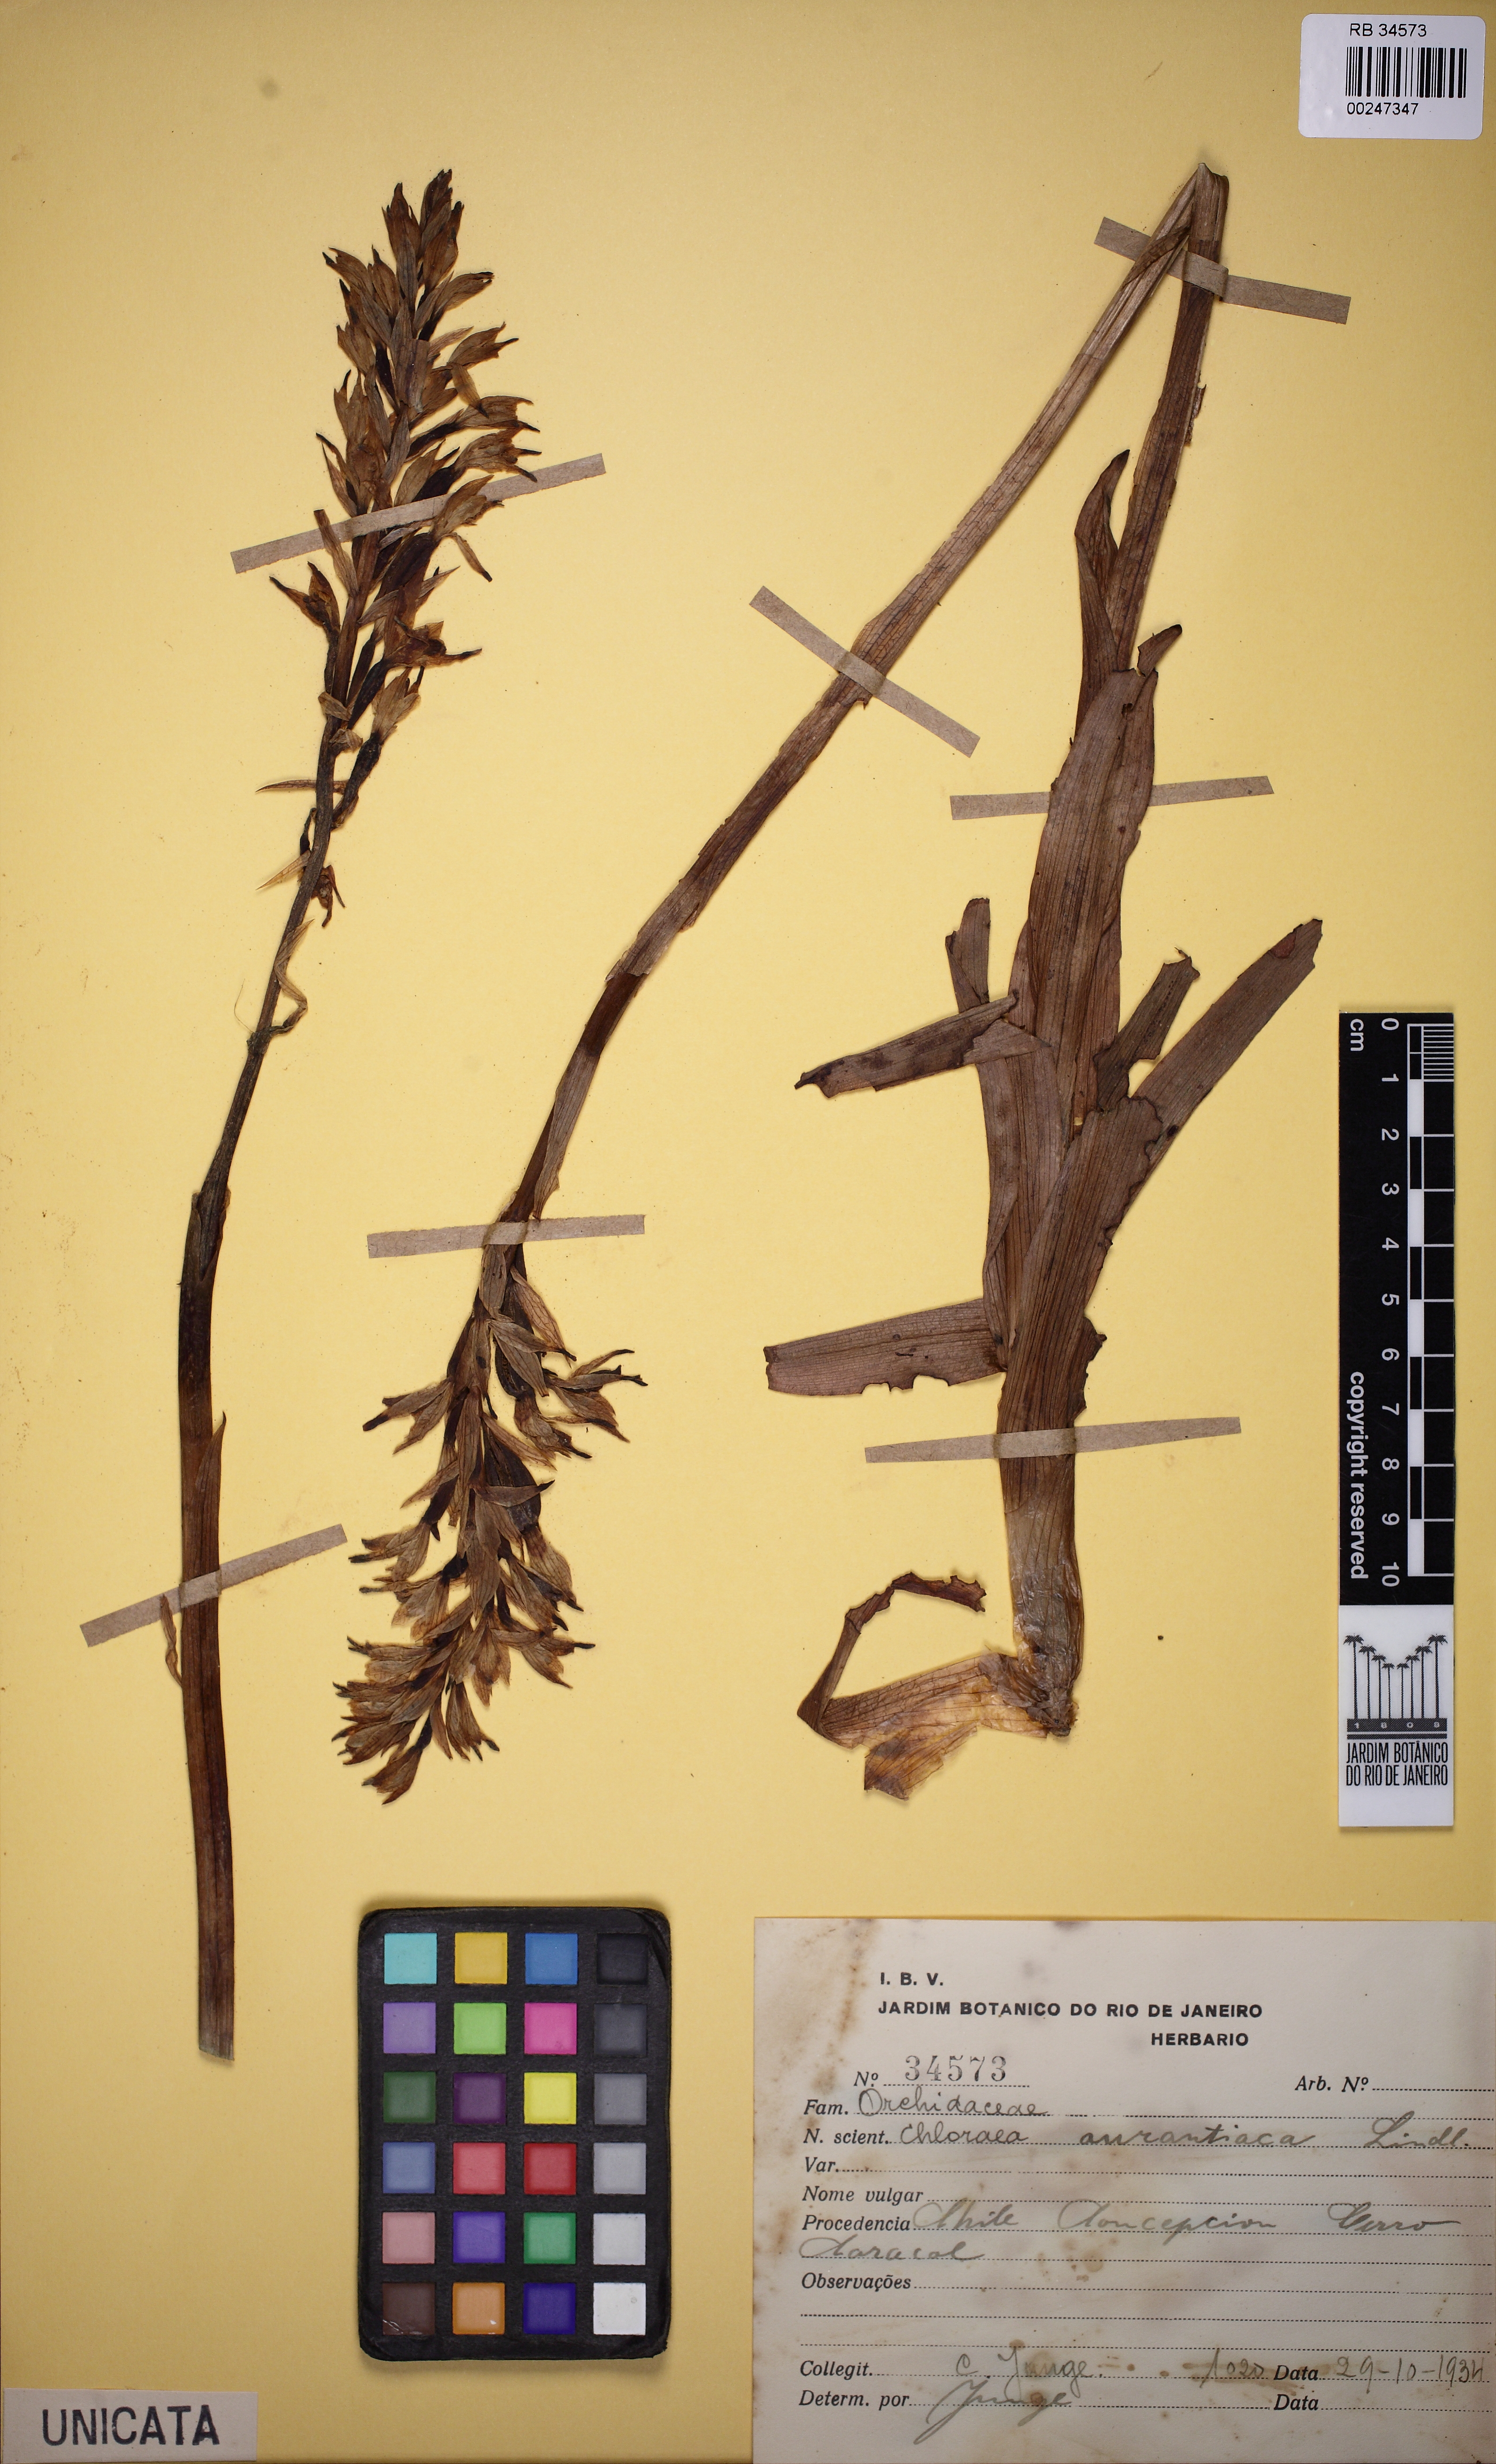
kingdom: Plantae
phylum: Tracheophyta
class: Liliopsida
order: Asparagales
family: Orchidaceae
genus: Chloraea
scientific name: Chloraea chrysantha
